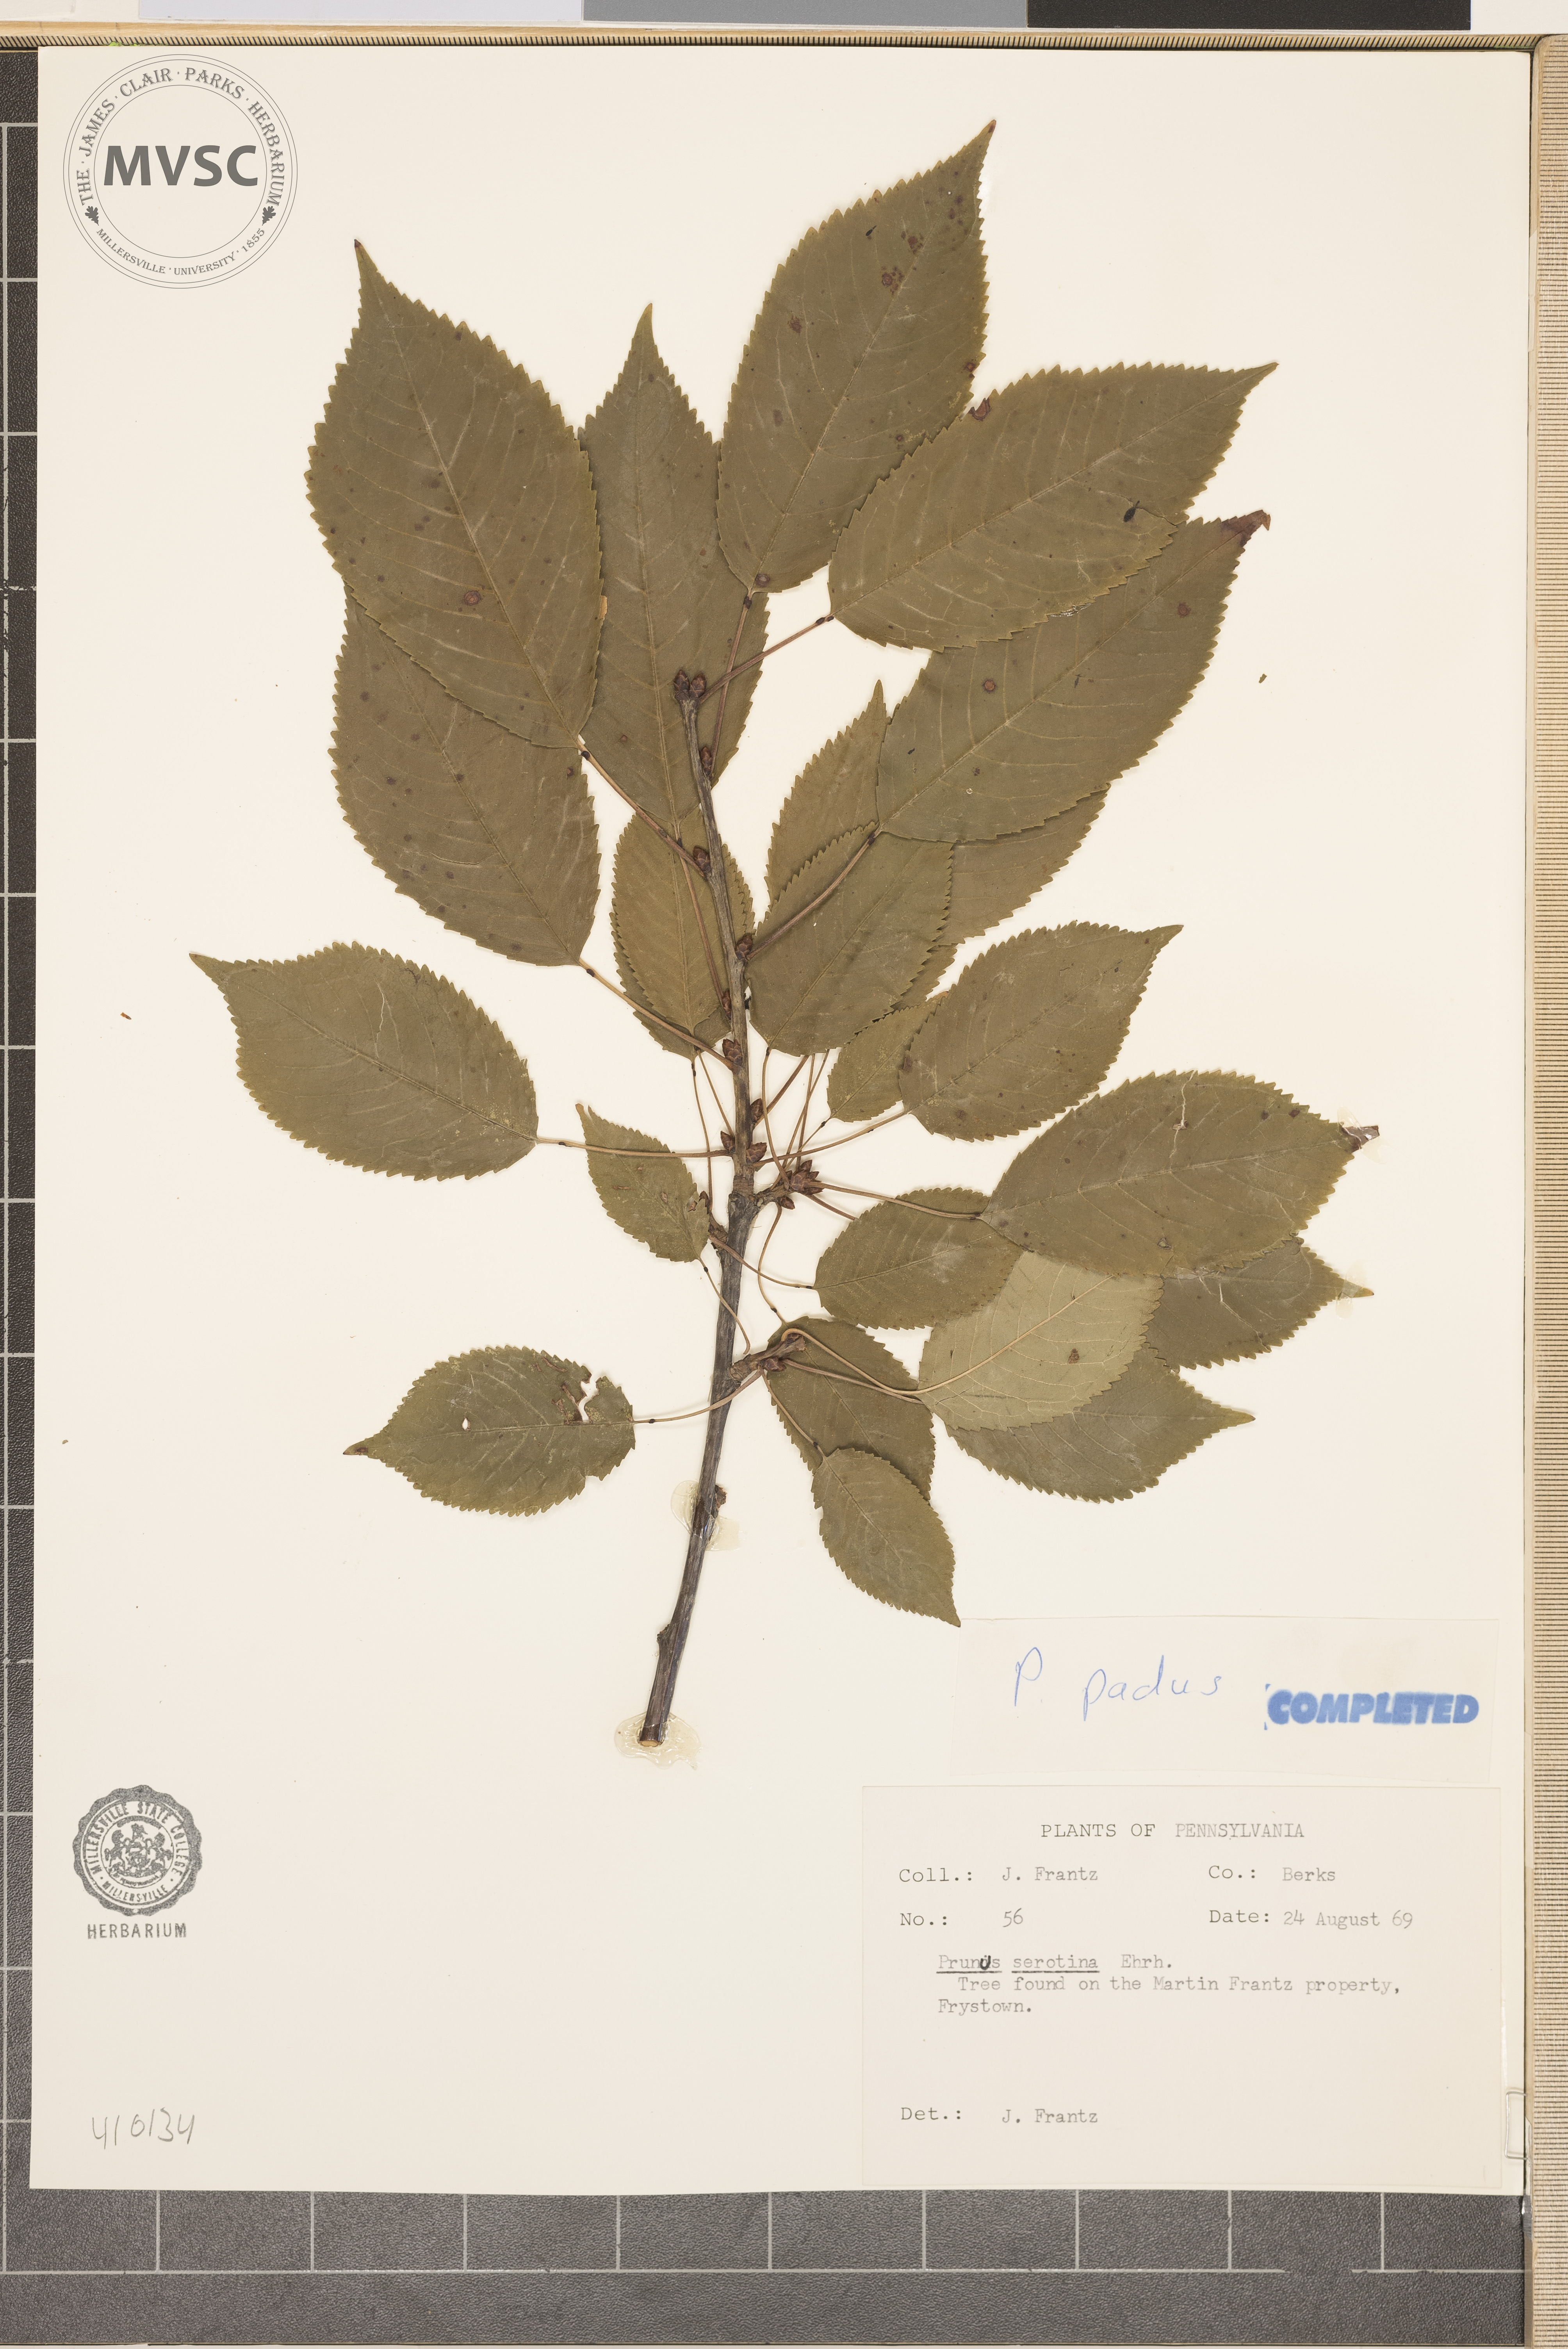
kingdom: Plantae
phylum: Tracheophyta
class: Magnoliopsida
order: Rosales
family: Rosaceae
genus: Prunus
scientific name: Prunus padus
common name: bird cherry
